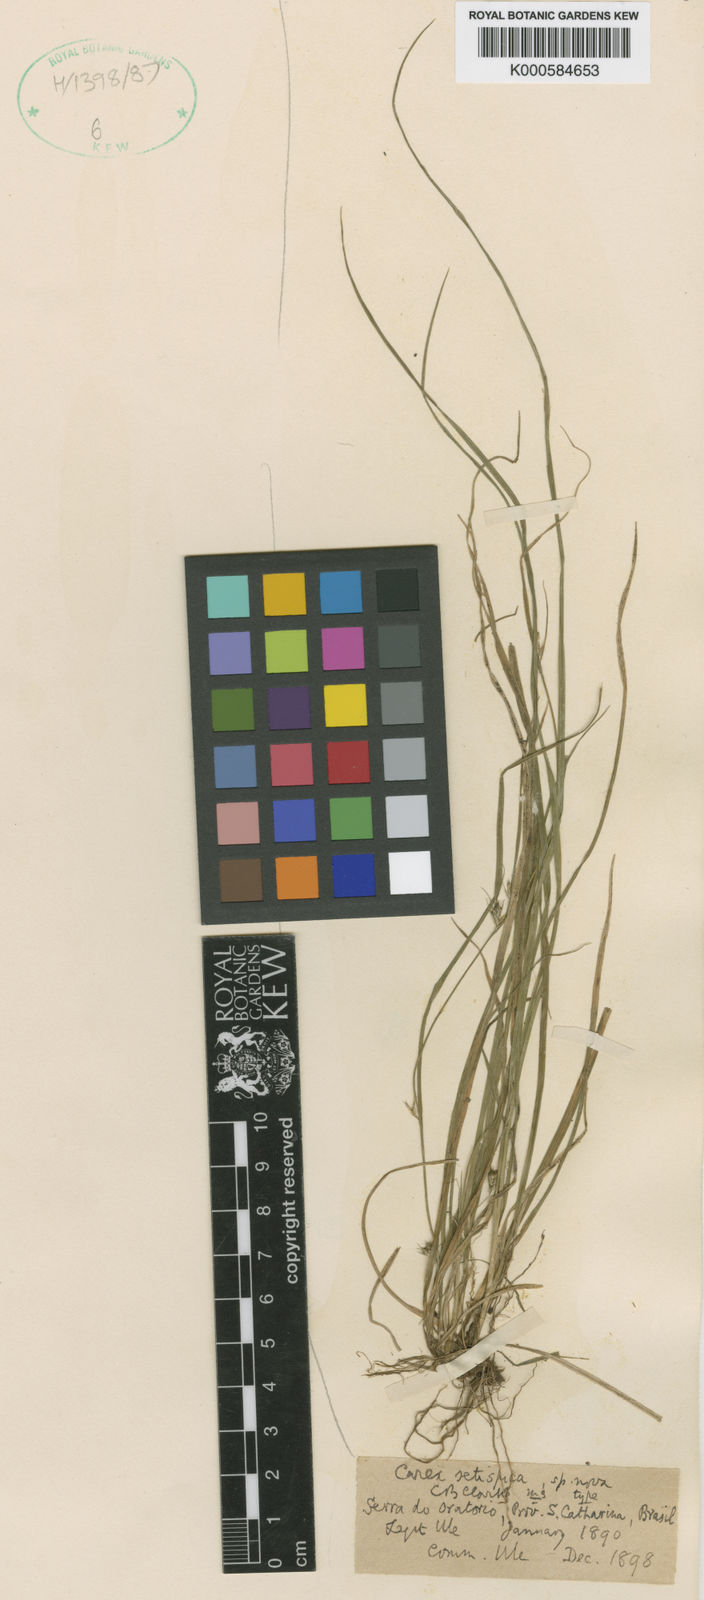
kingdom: Plantae
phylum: Tracheophyta
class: Liliopsida
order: Poales
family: Cyperaceae
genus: Carex
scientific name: Carex moesta
